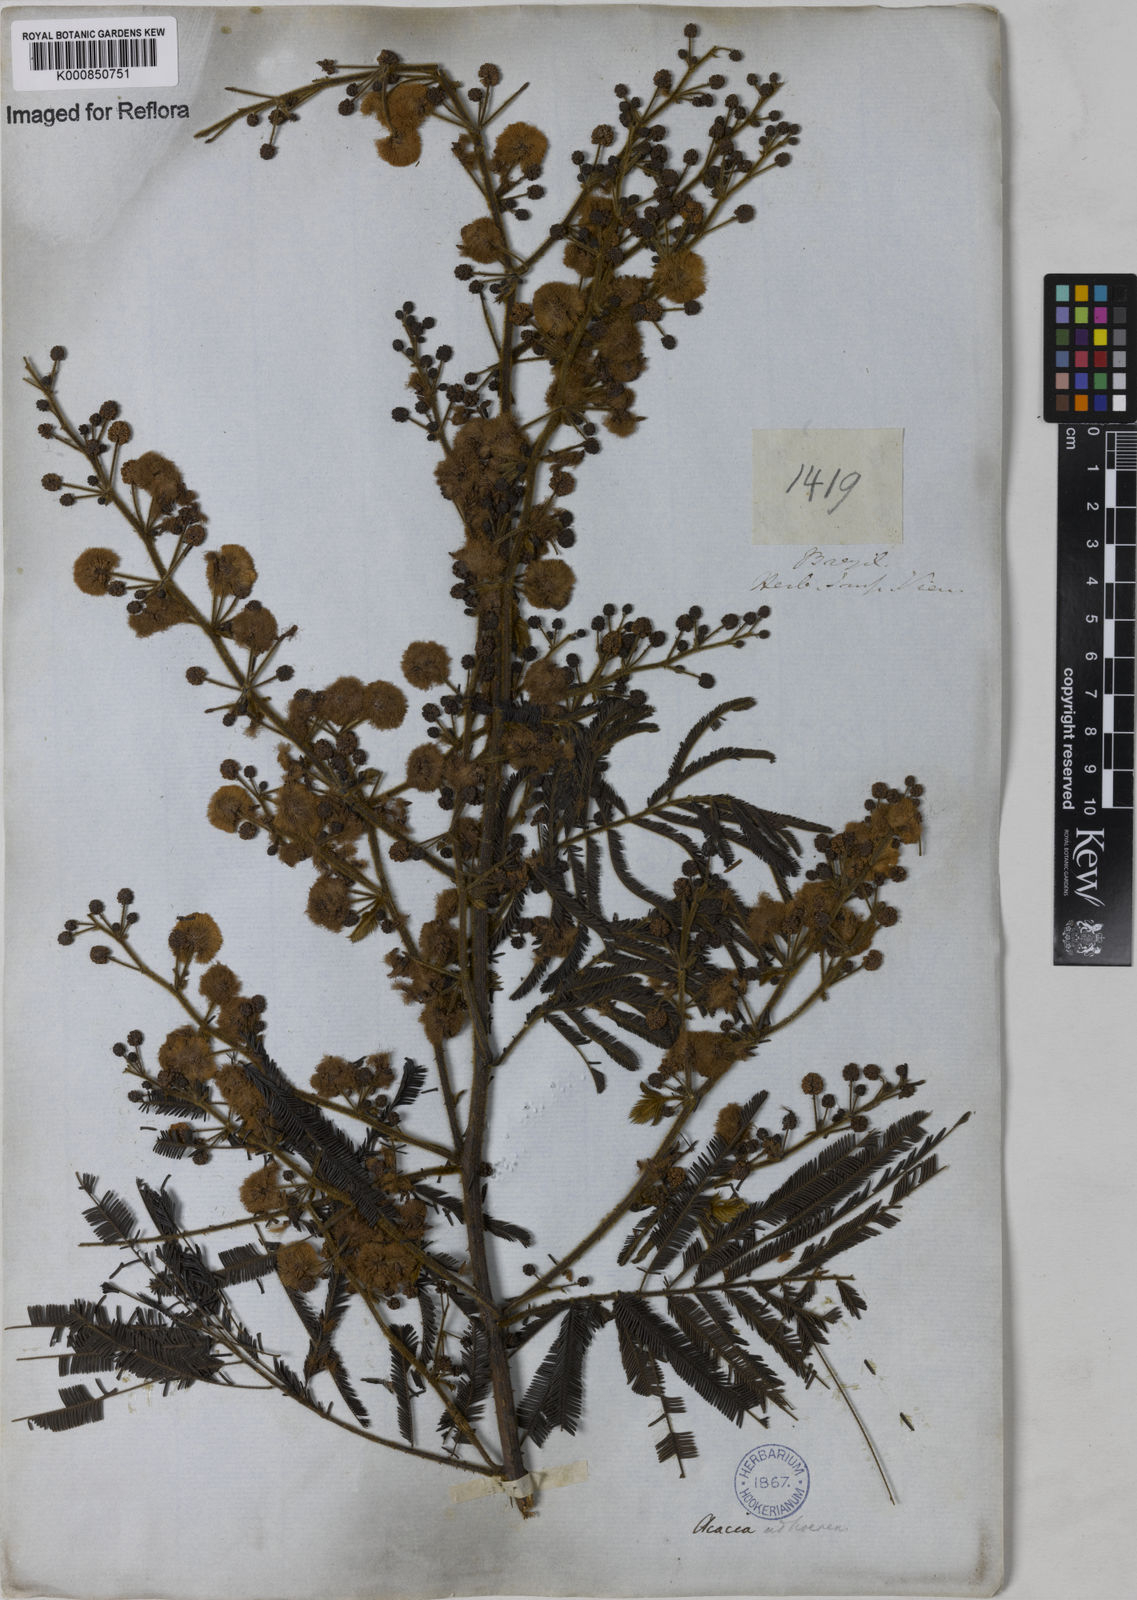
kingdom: Plantae
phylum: Tracheophyta
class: Magnoliopsida
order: Fabales
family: Fabaceae
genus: Senegalia
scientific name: Senegalia martiusiana
